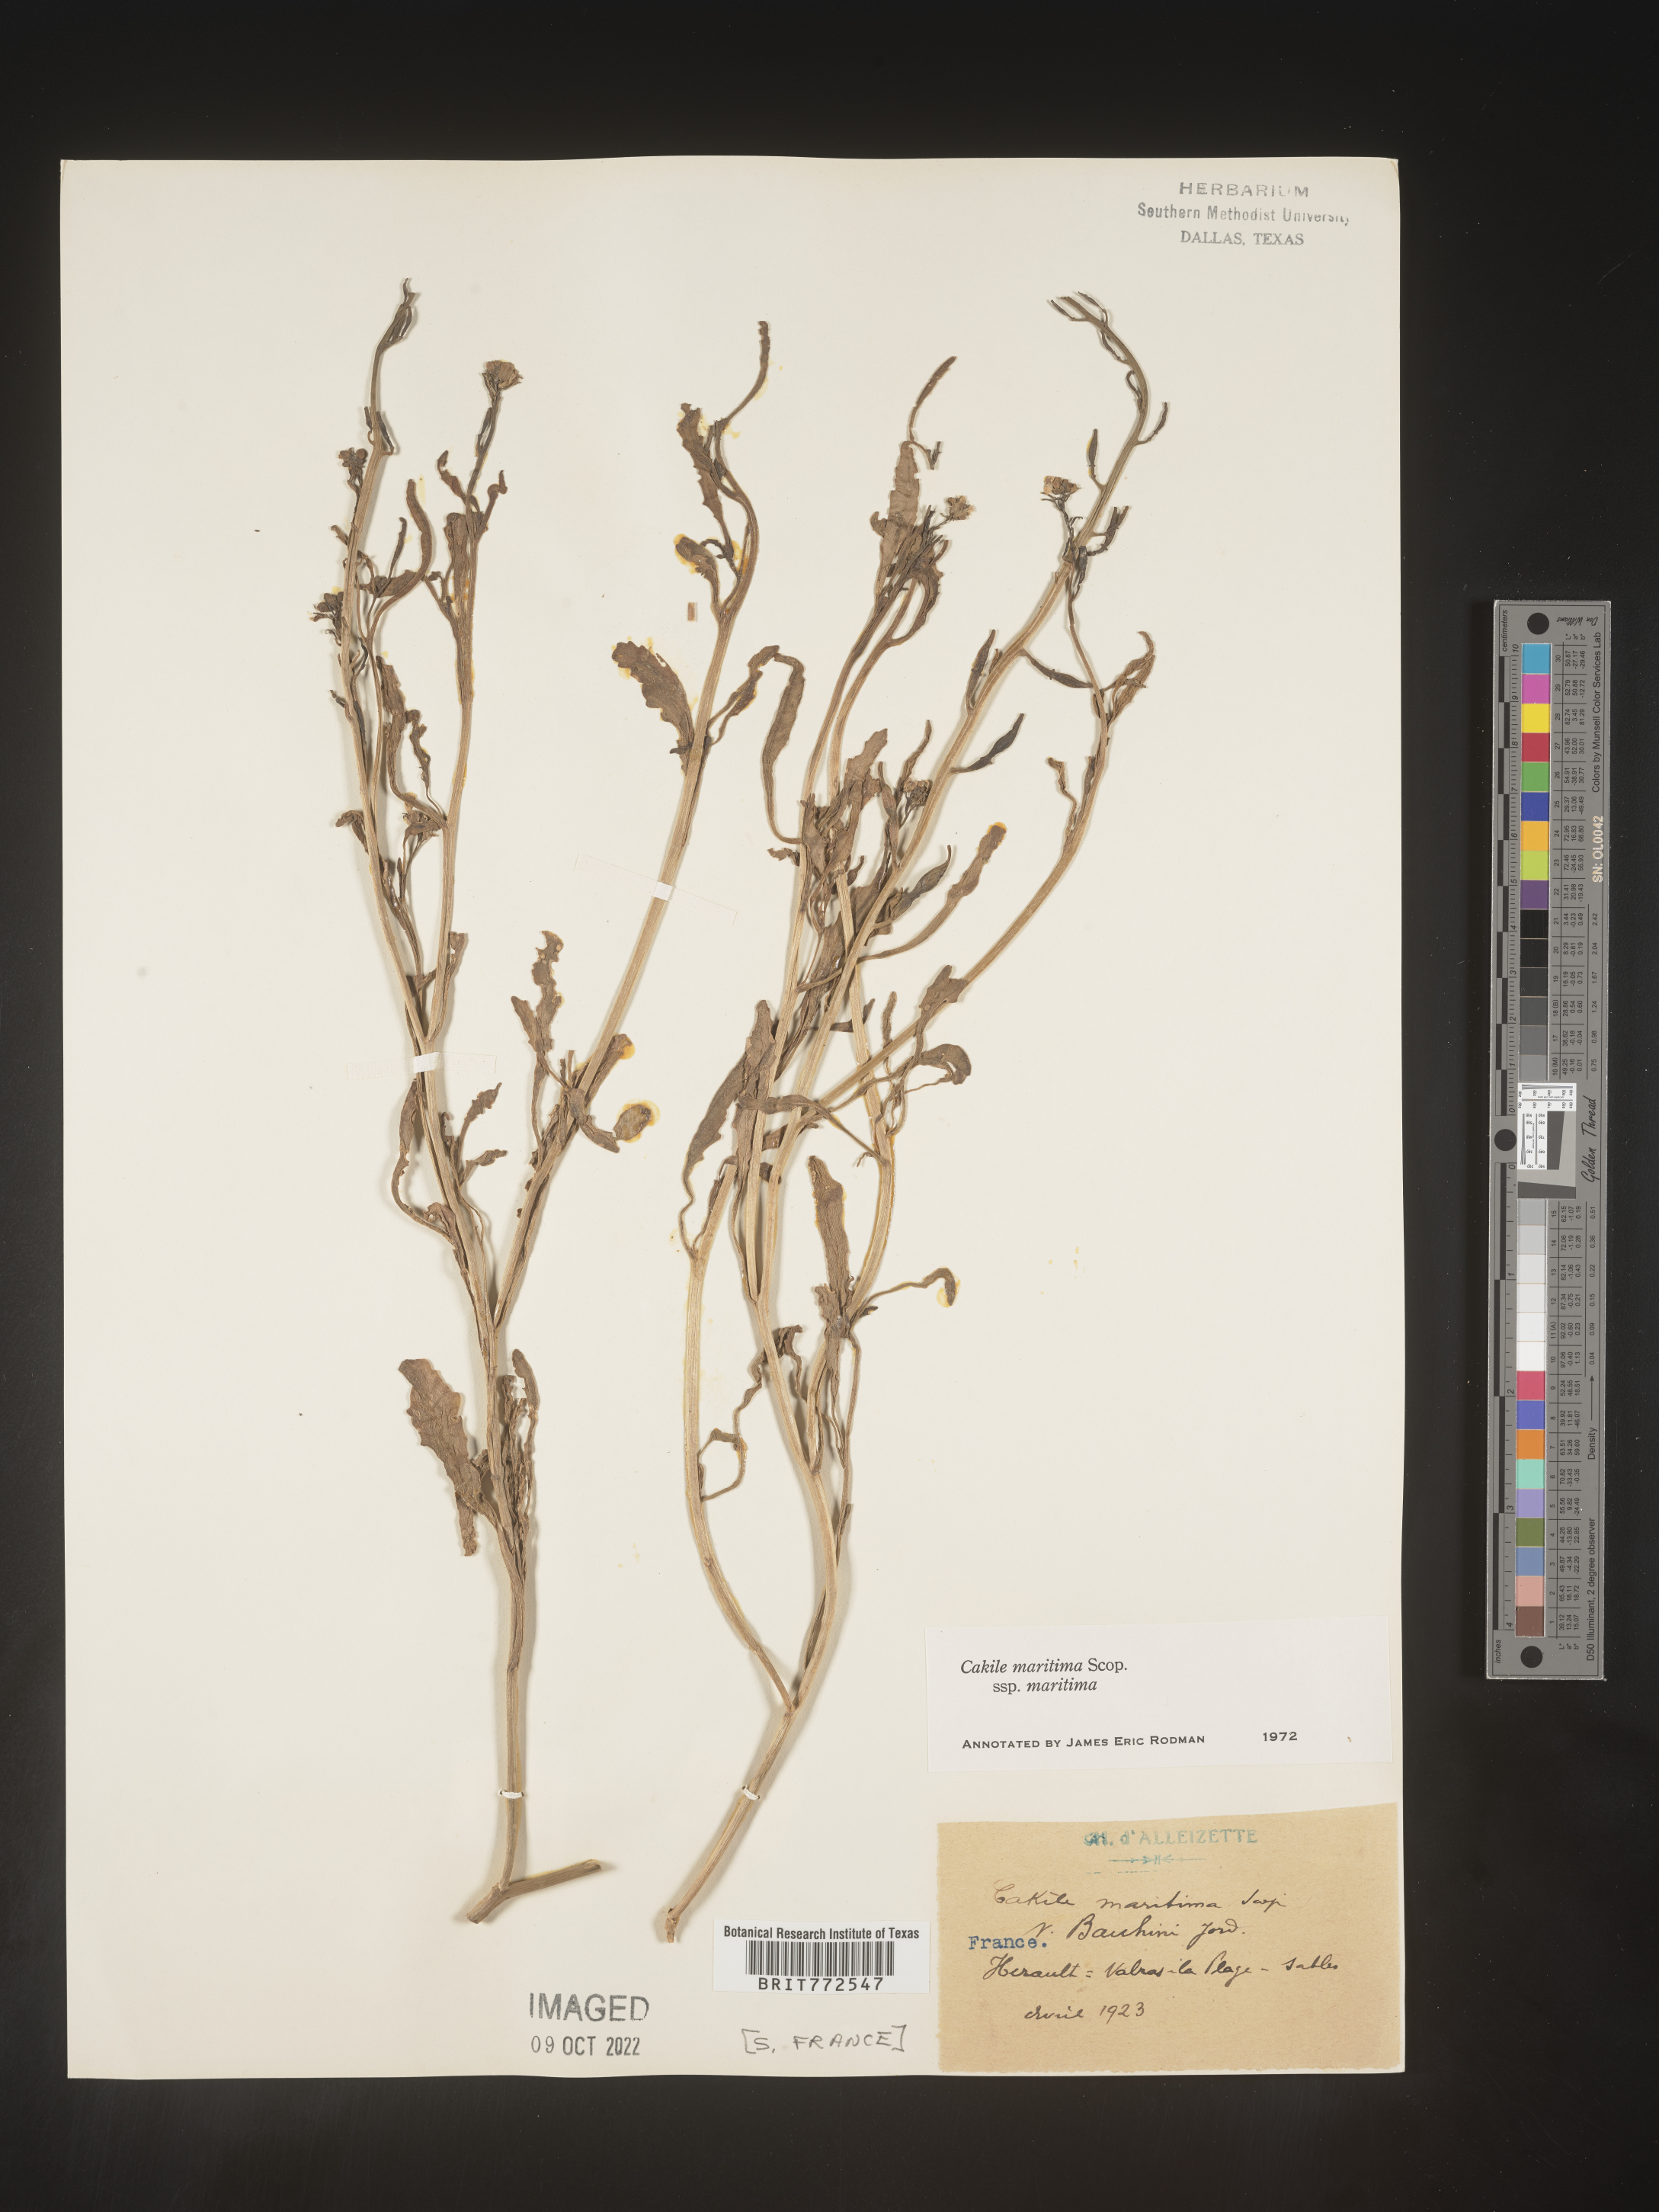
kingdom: Plantae
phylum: Tracheophyta
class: Magnoliopsida
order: Brassicales
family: Brassicaceae
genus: Cakile
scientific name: Cakile
